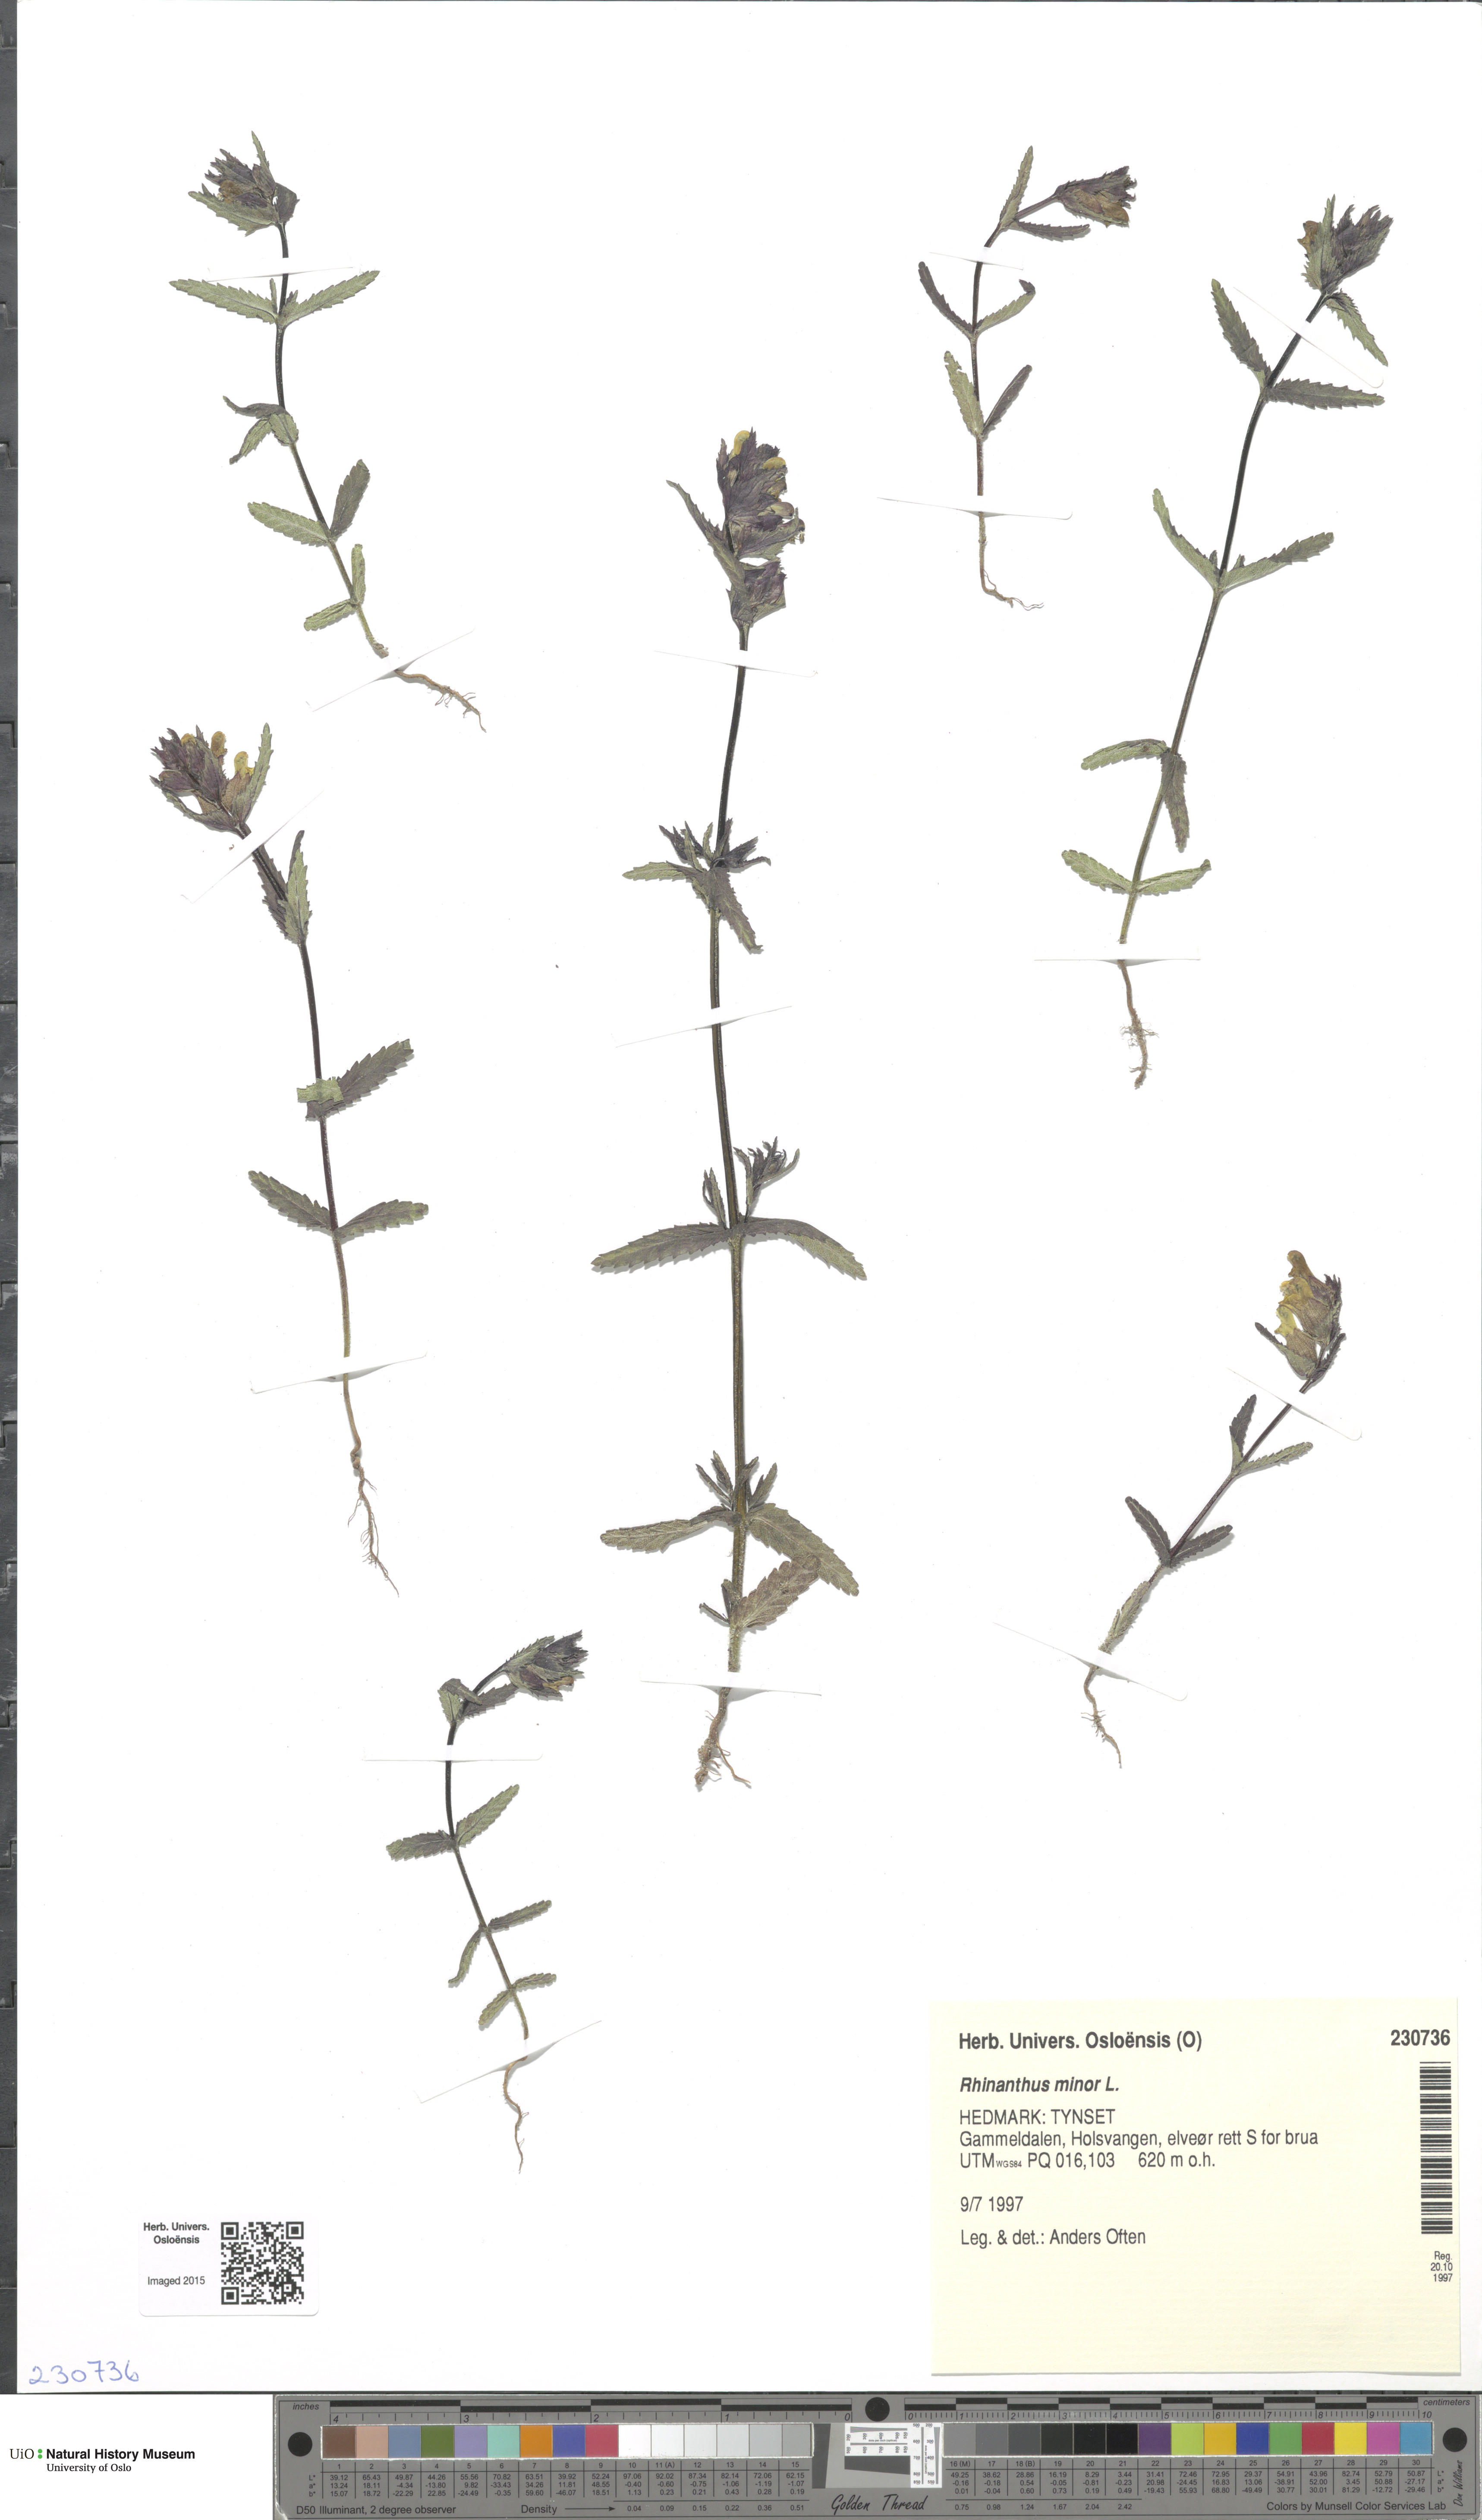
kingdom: Plantae
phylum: Tracheophyta
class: Magnoliopsida
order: Lamiales
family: Orobanchaceae
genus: Rhinanthus
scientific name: Rhinanthus minor
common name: Yellow-rattle
